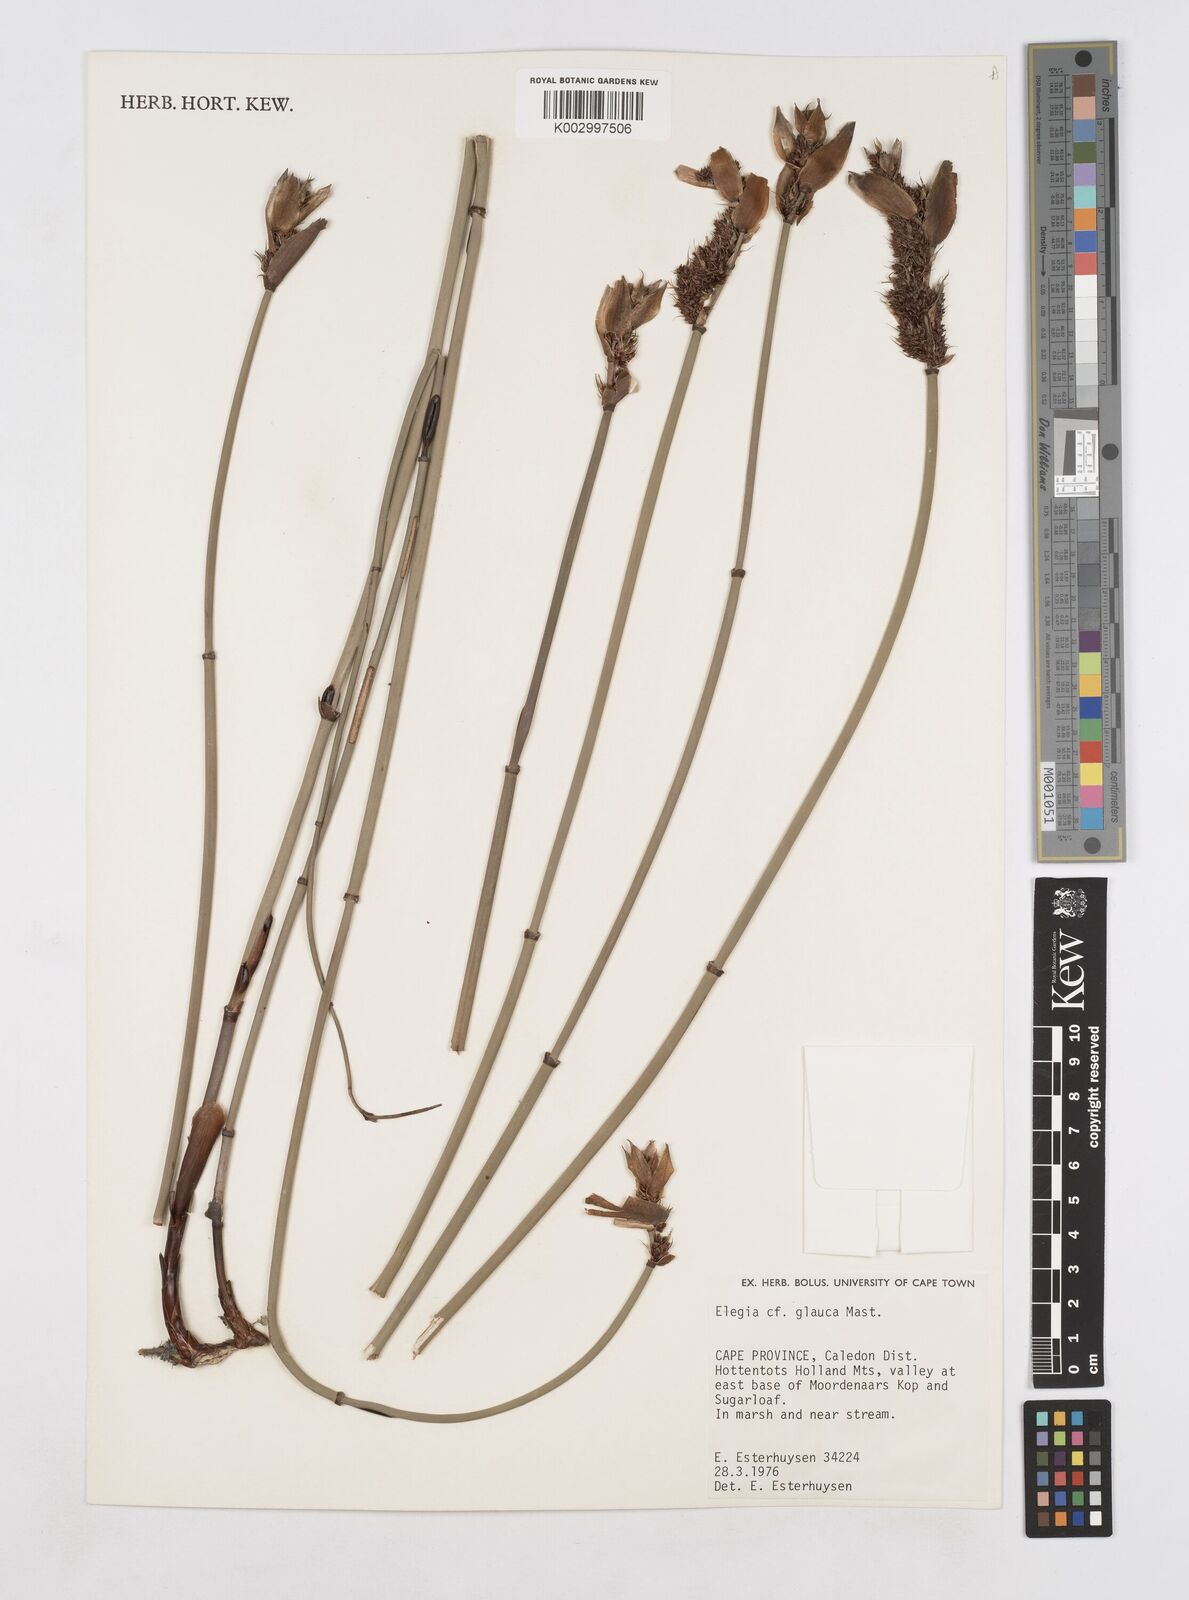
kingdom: Plantae
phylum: Tracheophyta
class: Liliopsida
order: Poales
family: Restionaceae
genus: Elegia
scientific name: Elegia asperiflora
